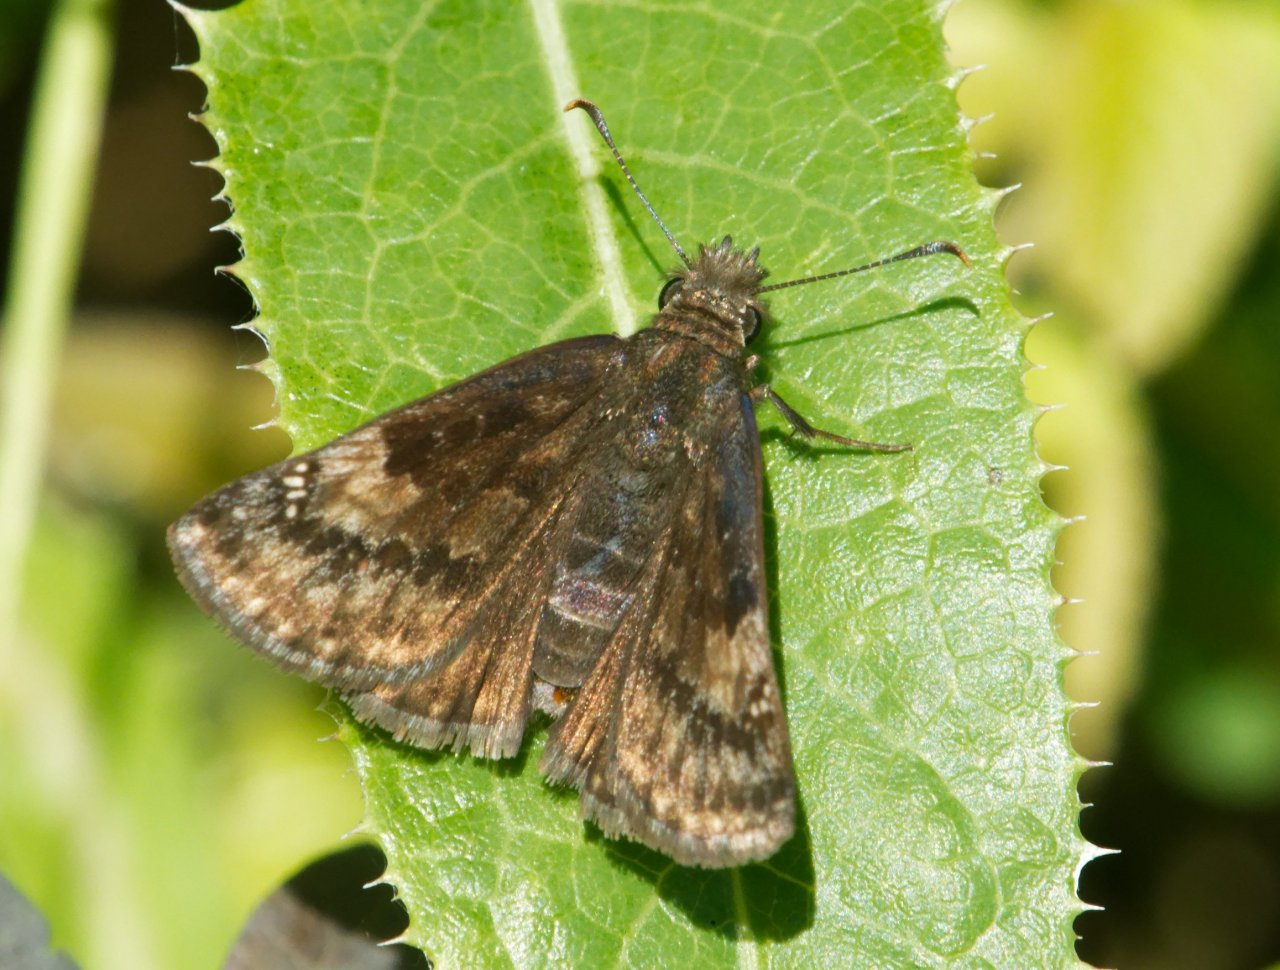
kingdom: Animalia
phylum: Arthropoda
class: Insecta
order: Lepidoptera
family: Hesperiidae
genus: Gesta
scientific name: Gesta
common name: Wild Indigo Duskywing
